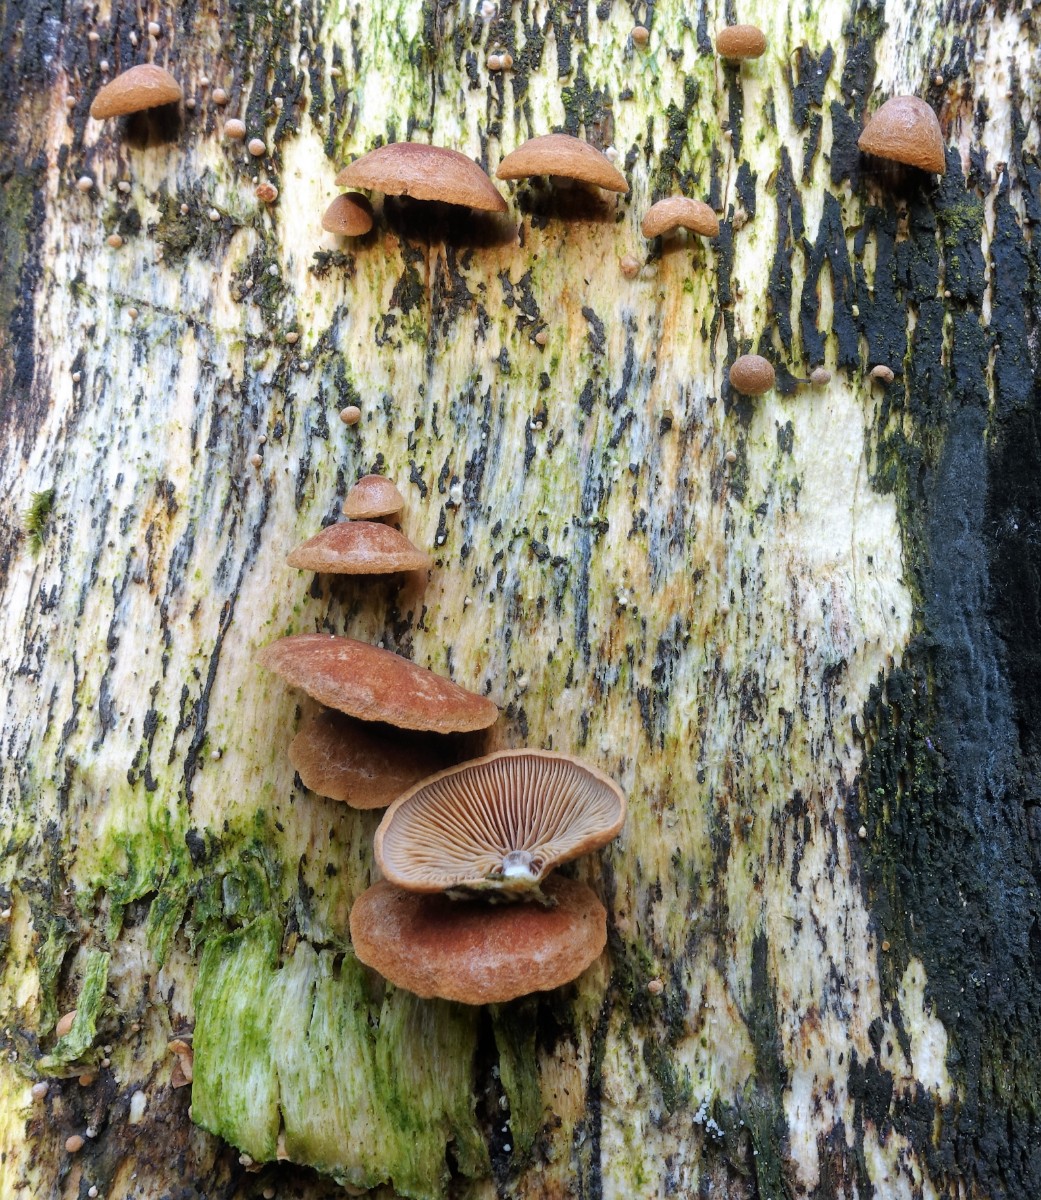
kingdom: Fungi
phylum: Basidiomycota
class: Agaricomycetes
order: Agaricales
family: Strophariaceae
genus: Deconica
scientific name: Deconica horizontalis
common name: ved-stråhat
